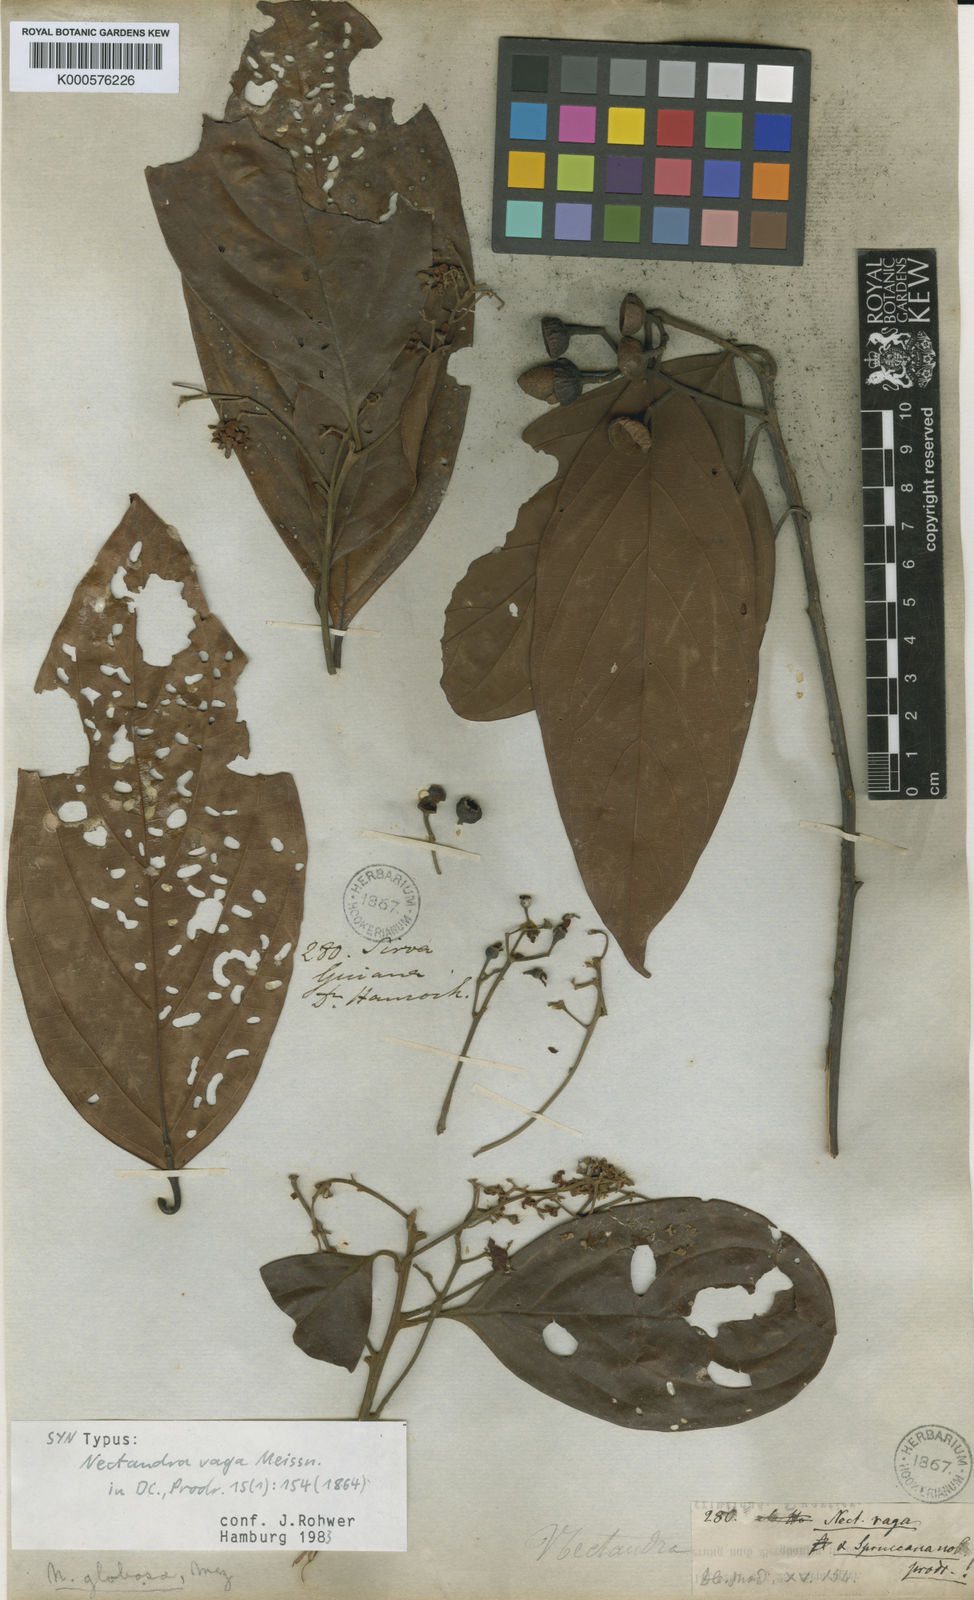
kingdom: Plantae
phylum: Tracheophyta
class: Magnoliopsida
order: Laurales
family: Lauraceae
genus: Nectandra
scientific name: Nectandra globosa
